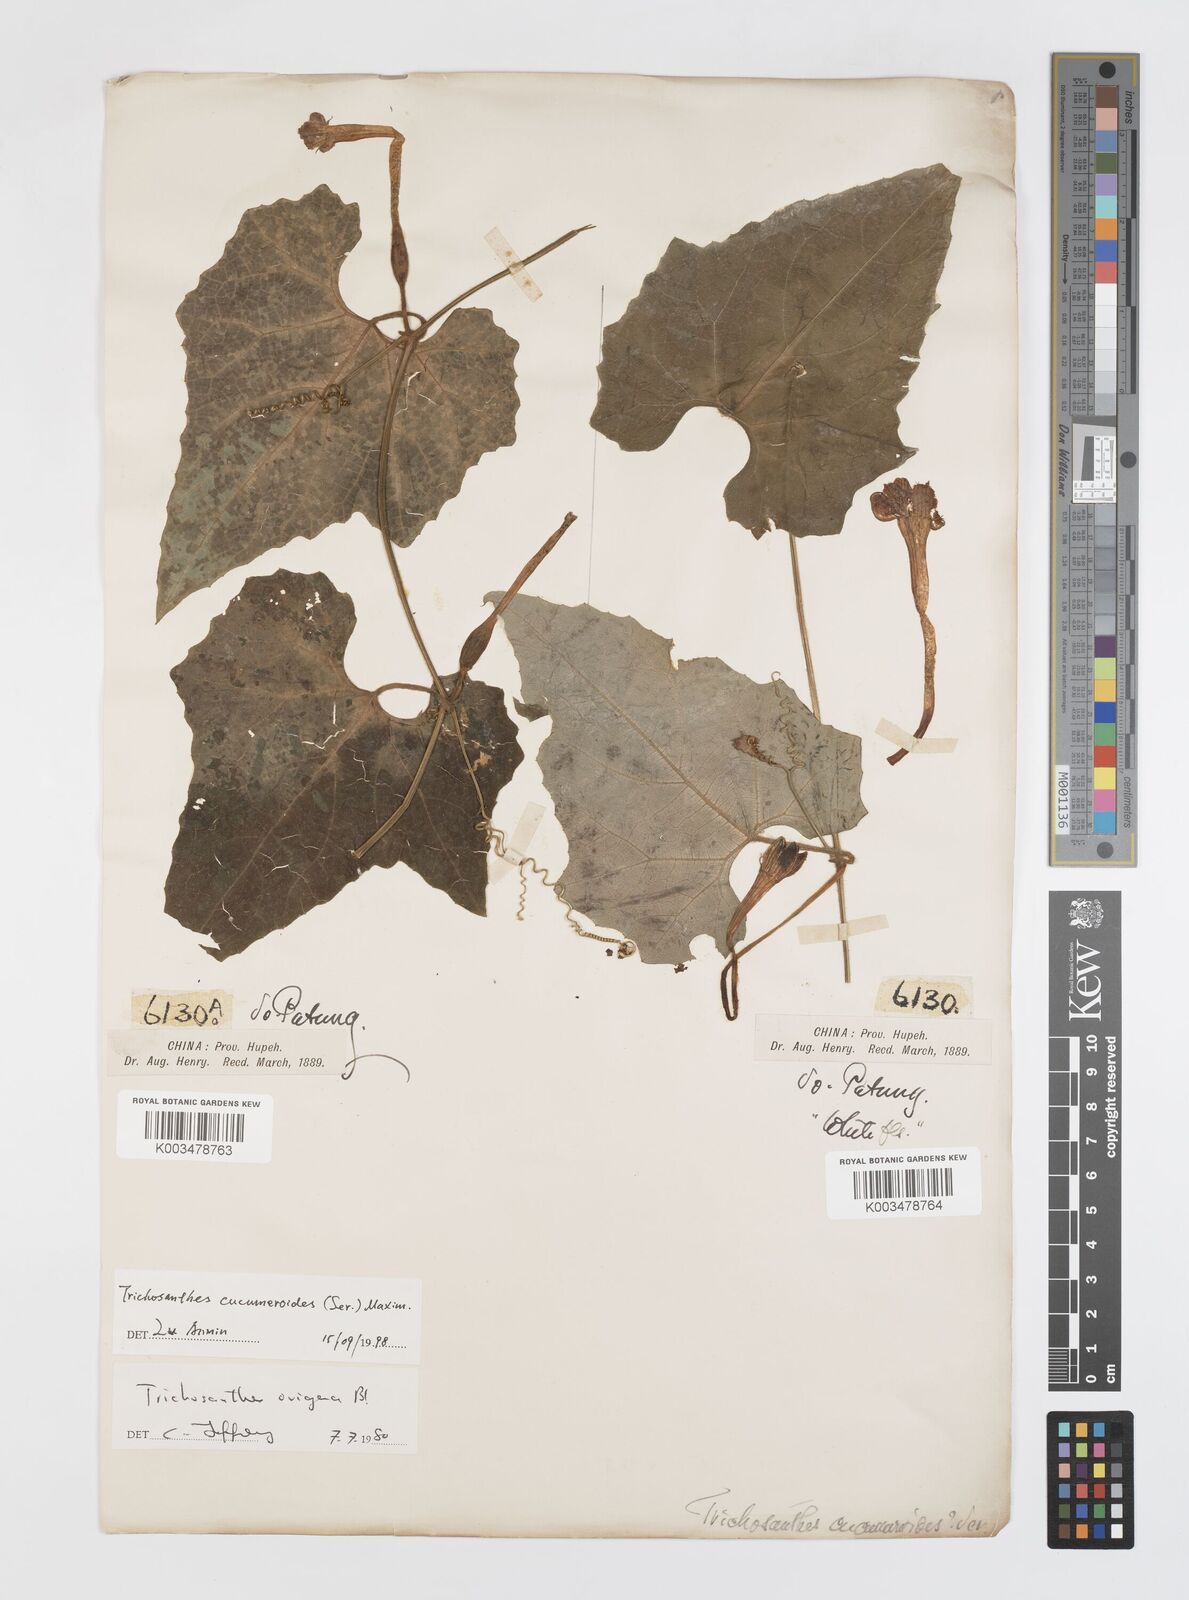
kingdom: Plantae
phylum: Tracheophyta
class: Magnoliopsida
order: Cucurbitales
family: Cucurbitaceae
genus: Trichosanthes
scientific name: Trichosanthes ovigera
